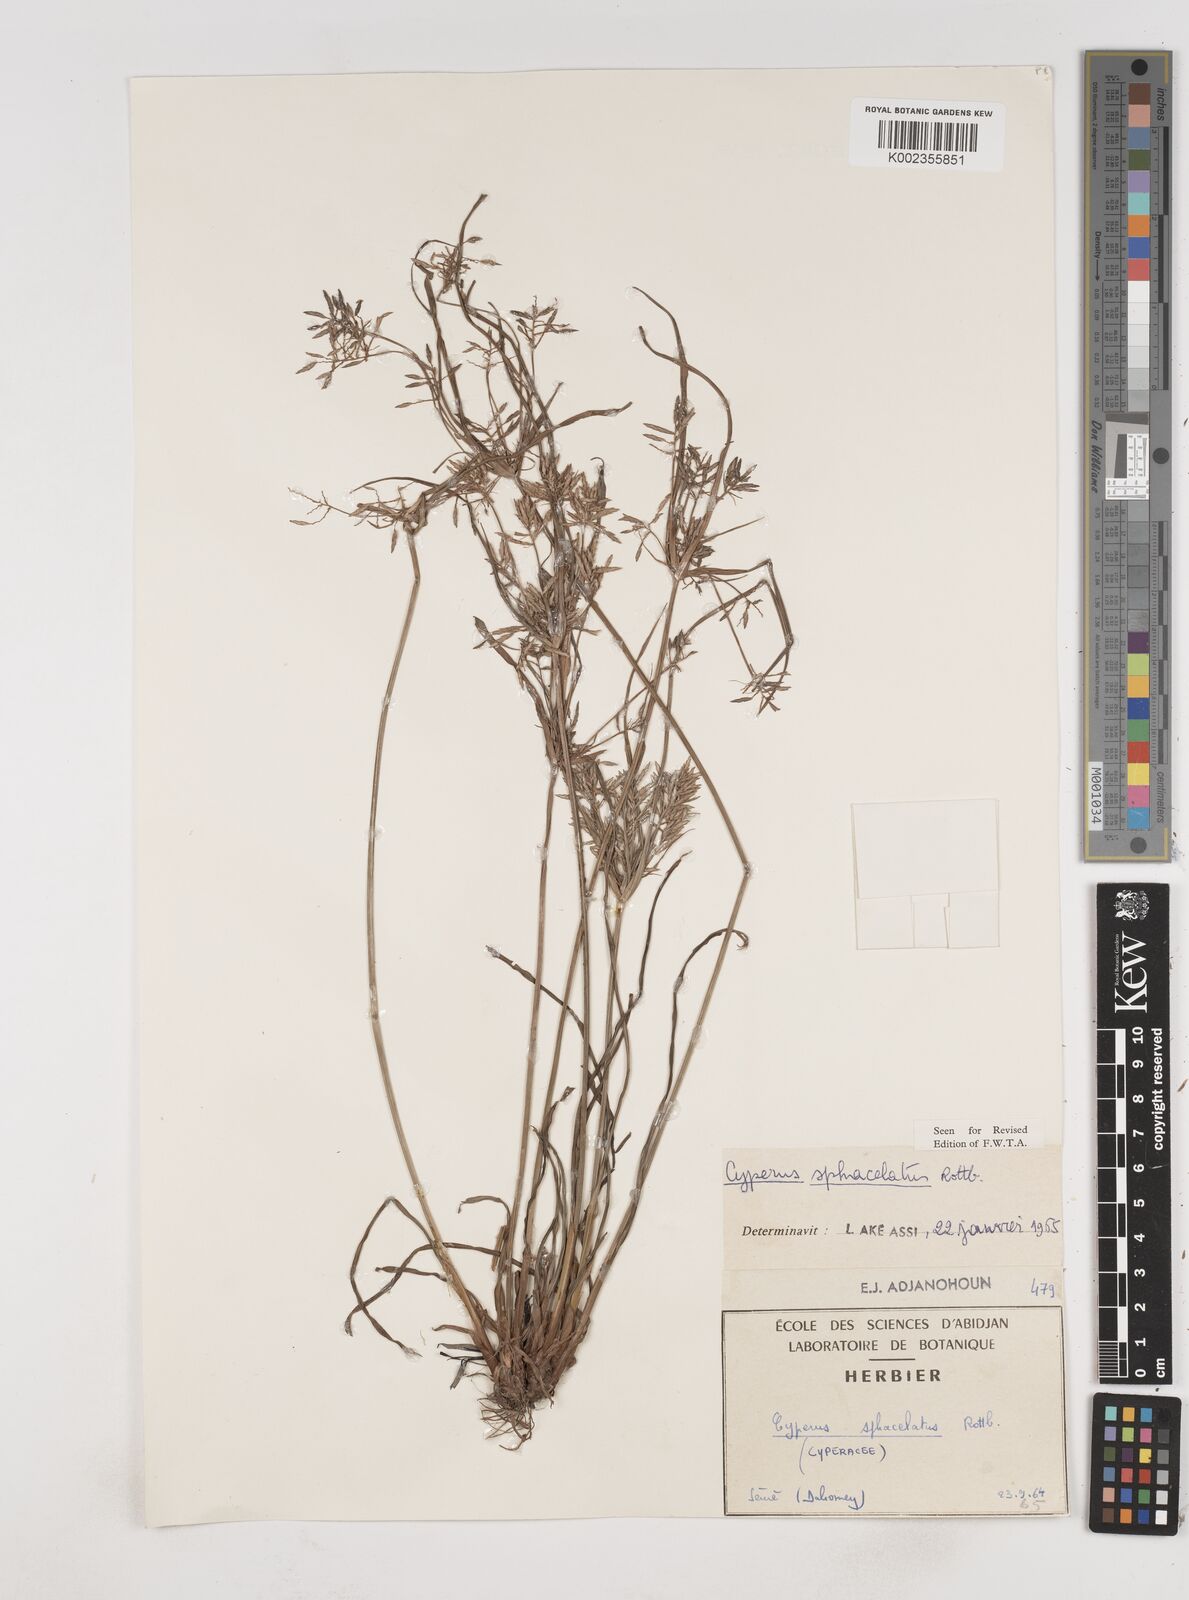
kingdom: Plantae
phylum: Tracheophyta
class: Liliopsida
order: Poales
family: Cyperaceae
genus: Cyperus
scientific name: Cyperus sphacelatus
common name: Roadside flatsedge
